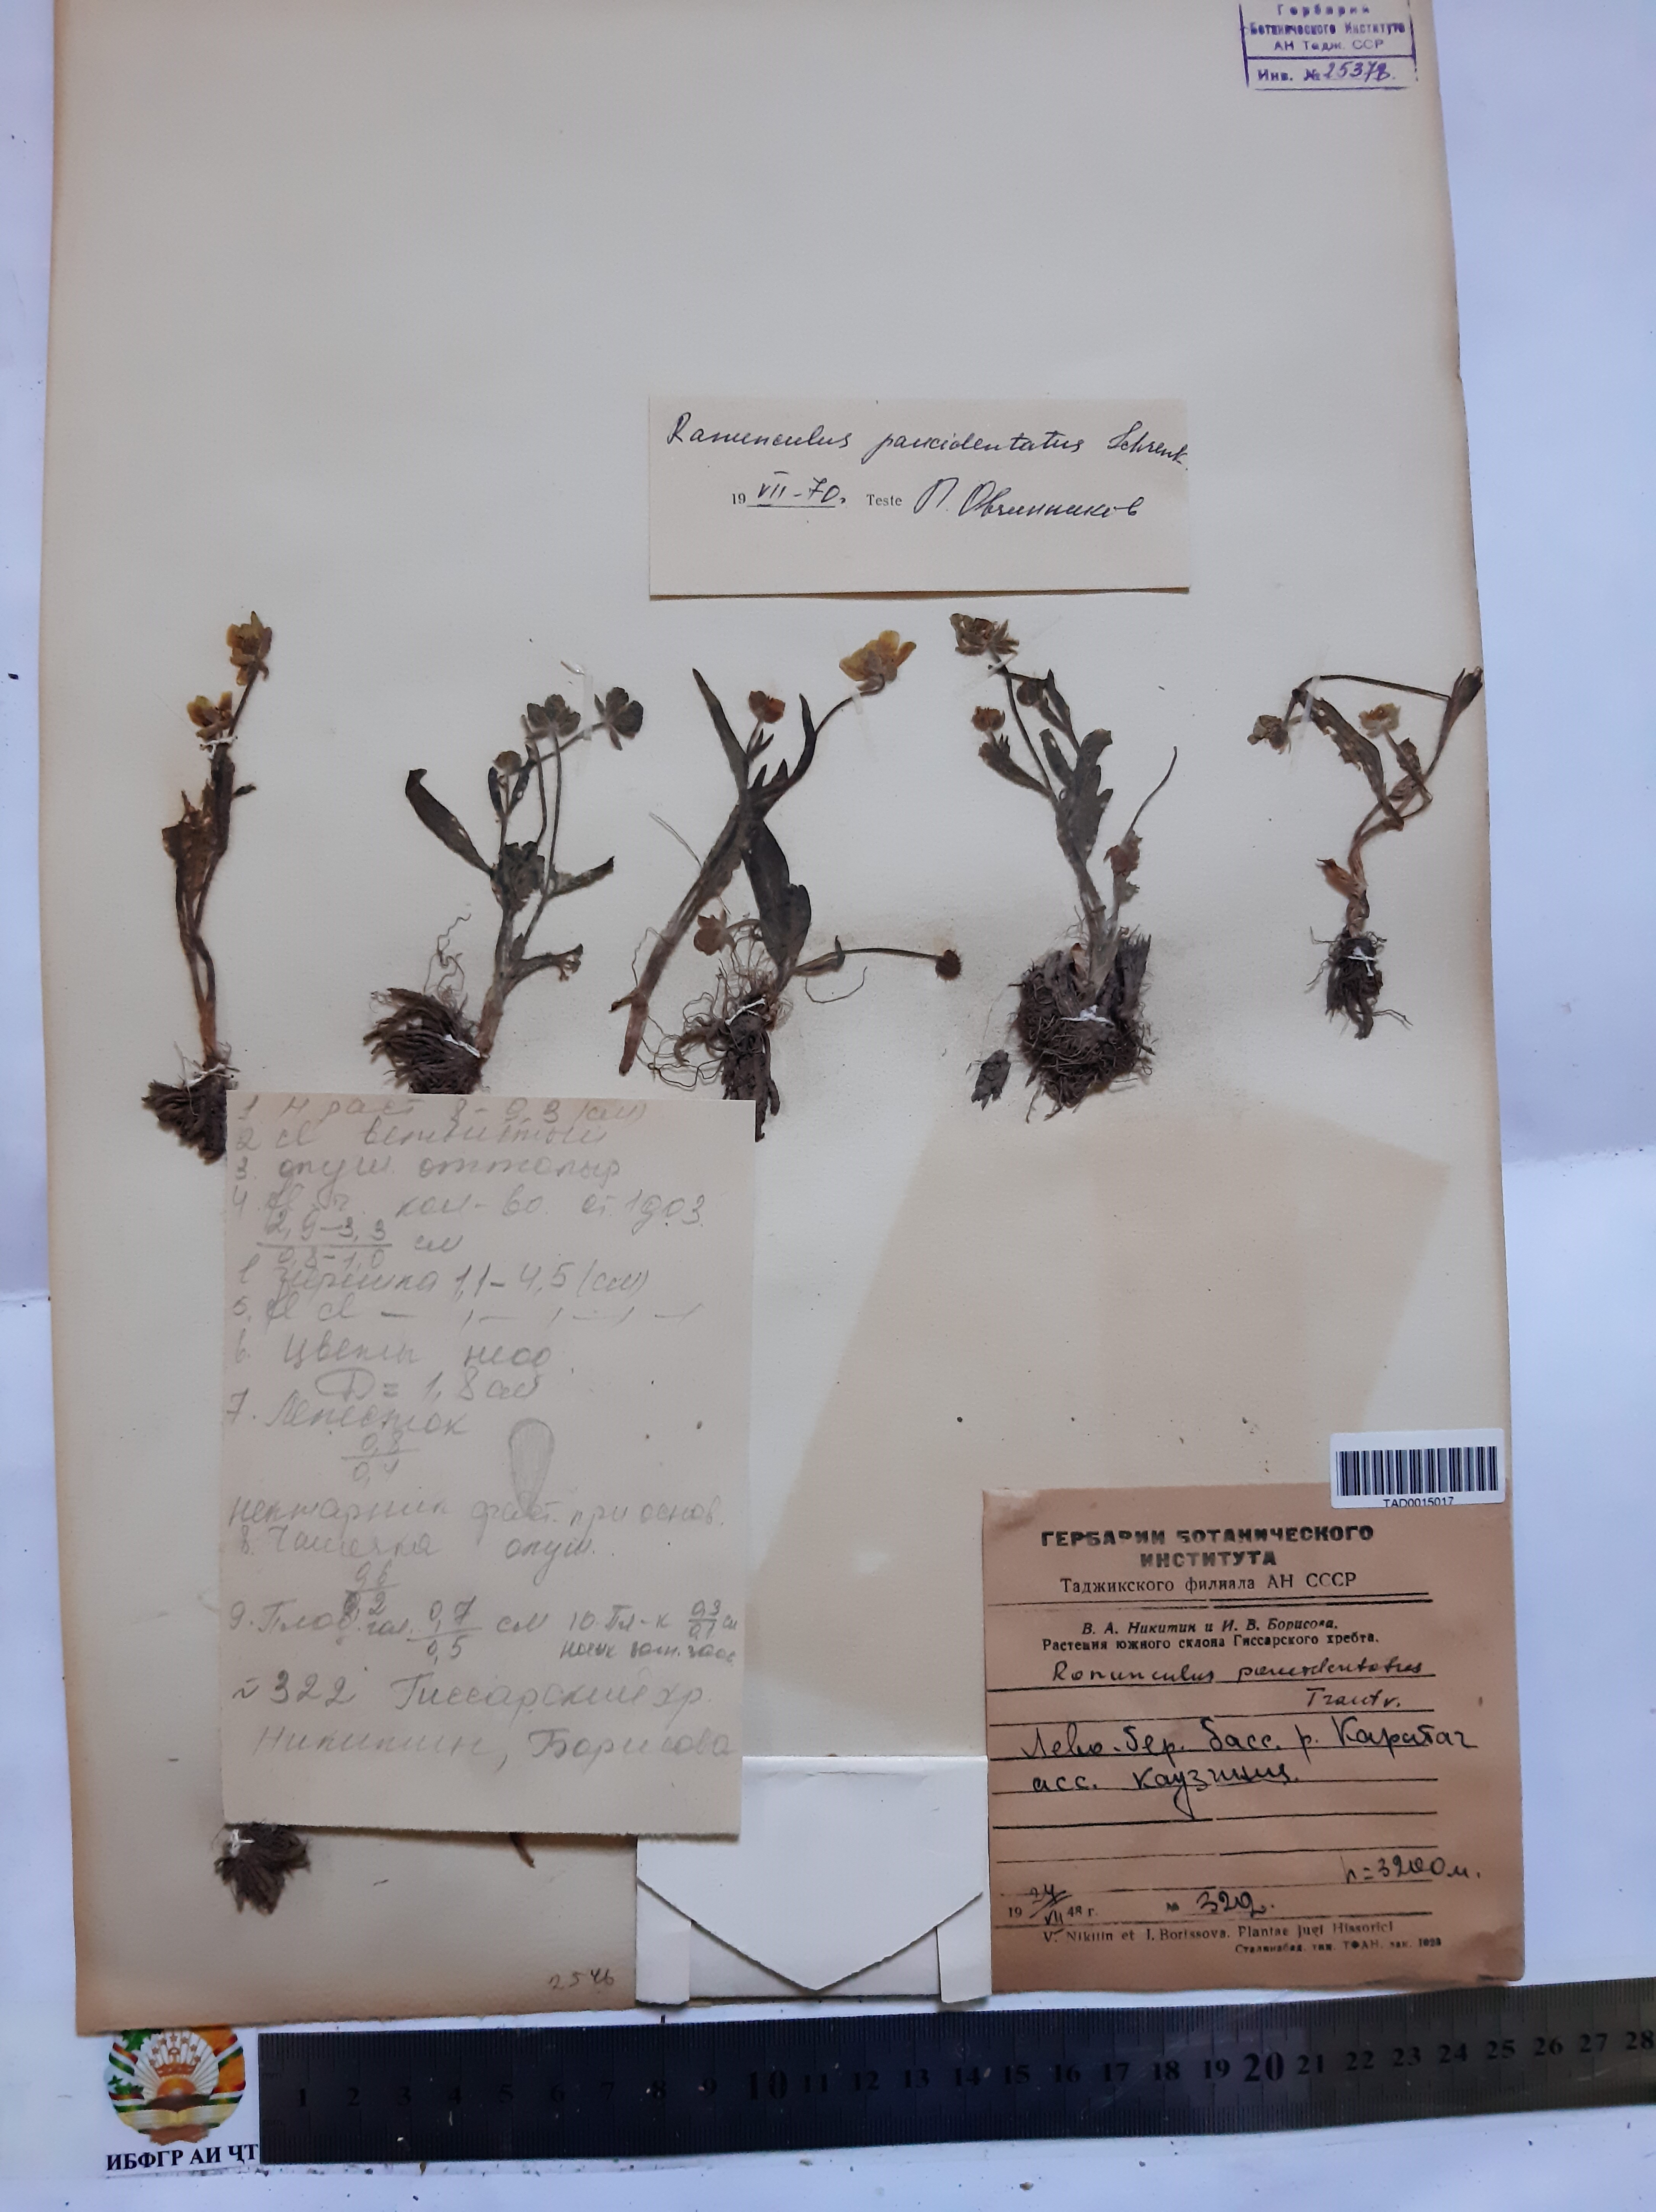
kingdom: Plantae
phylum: Tracheophyta
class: Magnoliopsida
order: Ranunculales
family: Ranunculaceae
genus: Ranunculus
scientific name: Ranunculus paucidentatus
